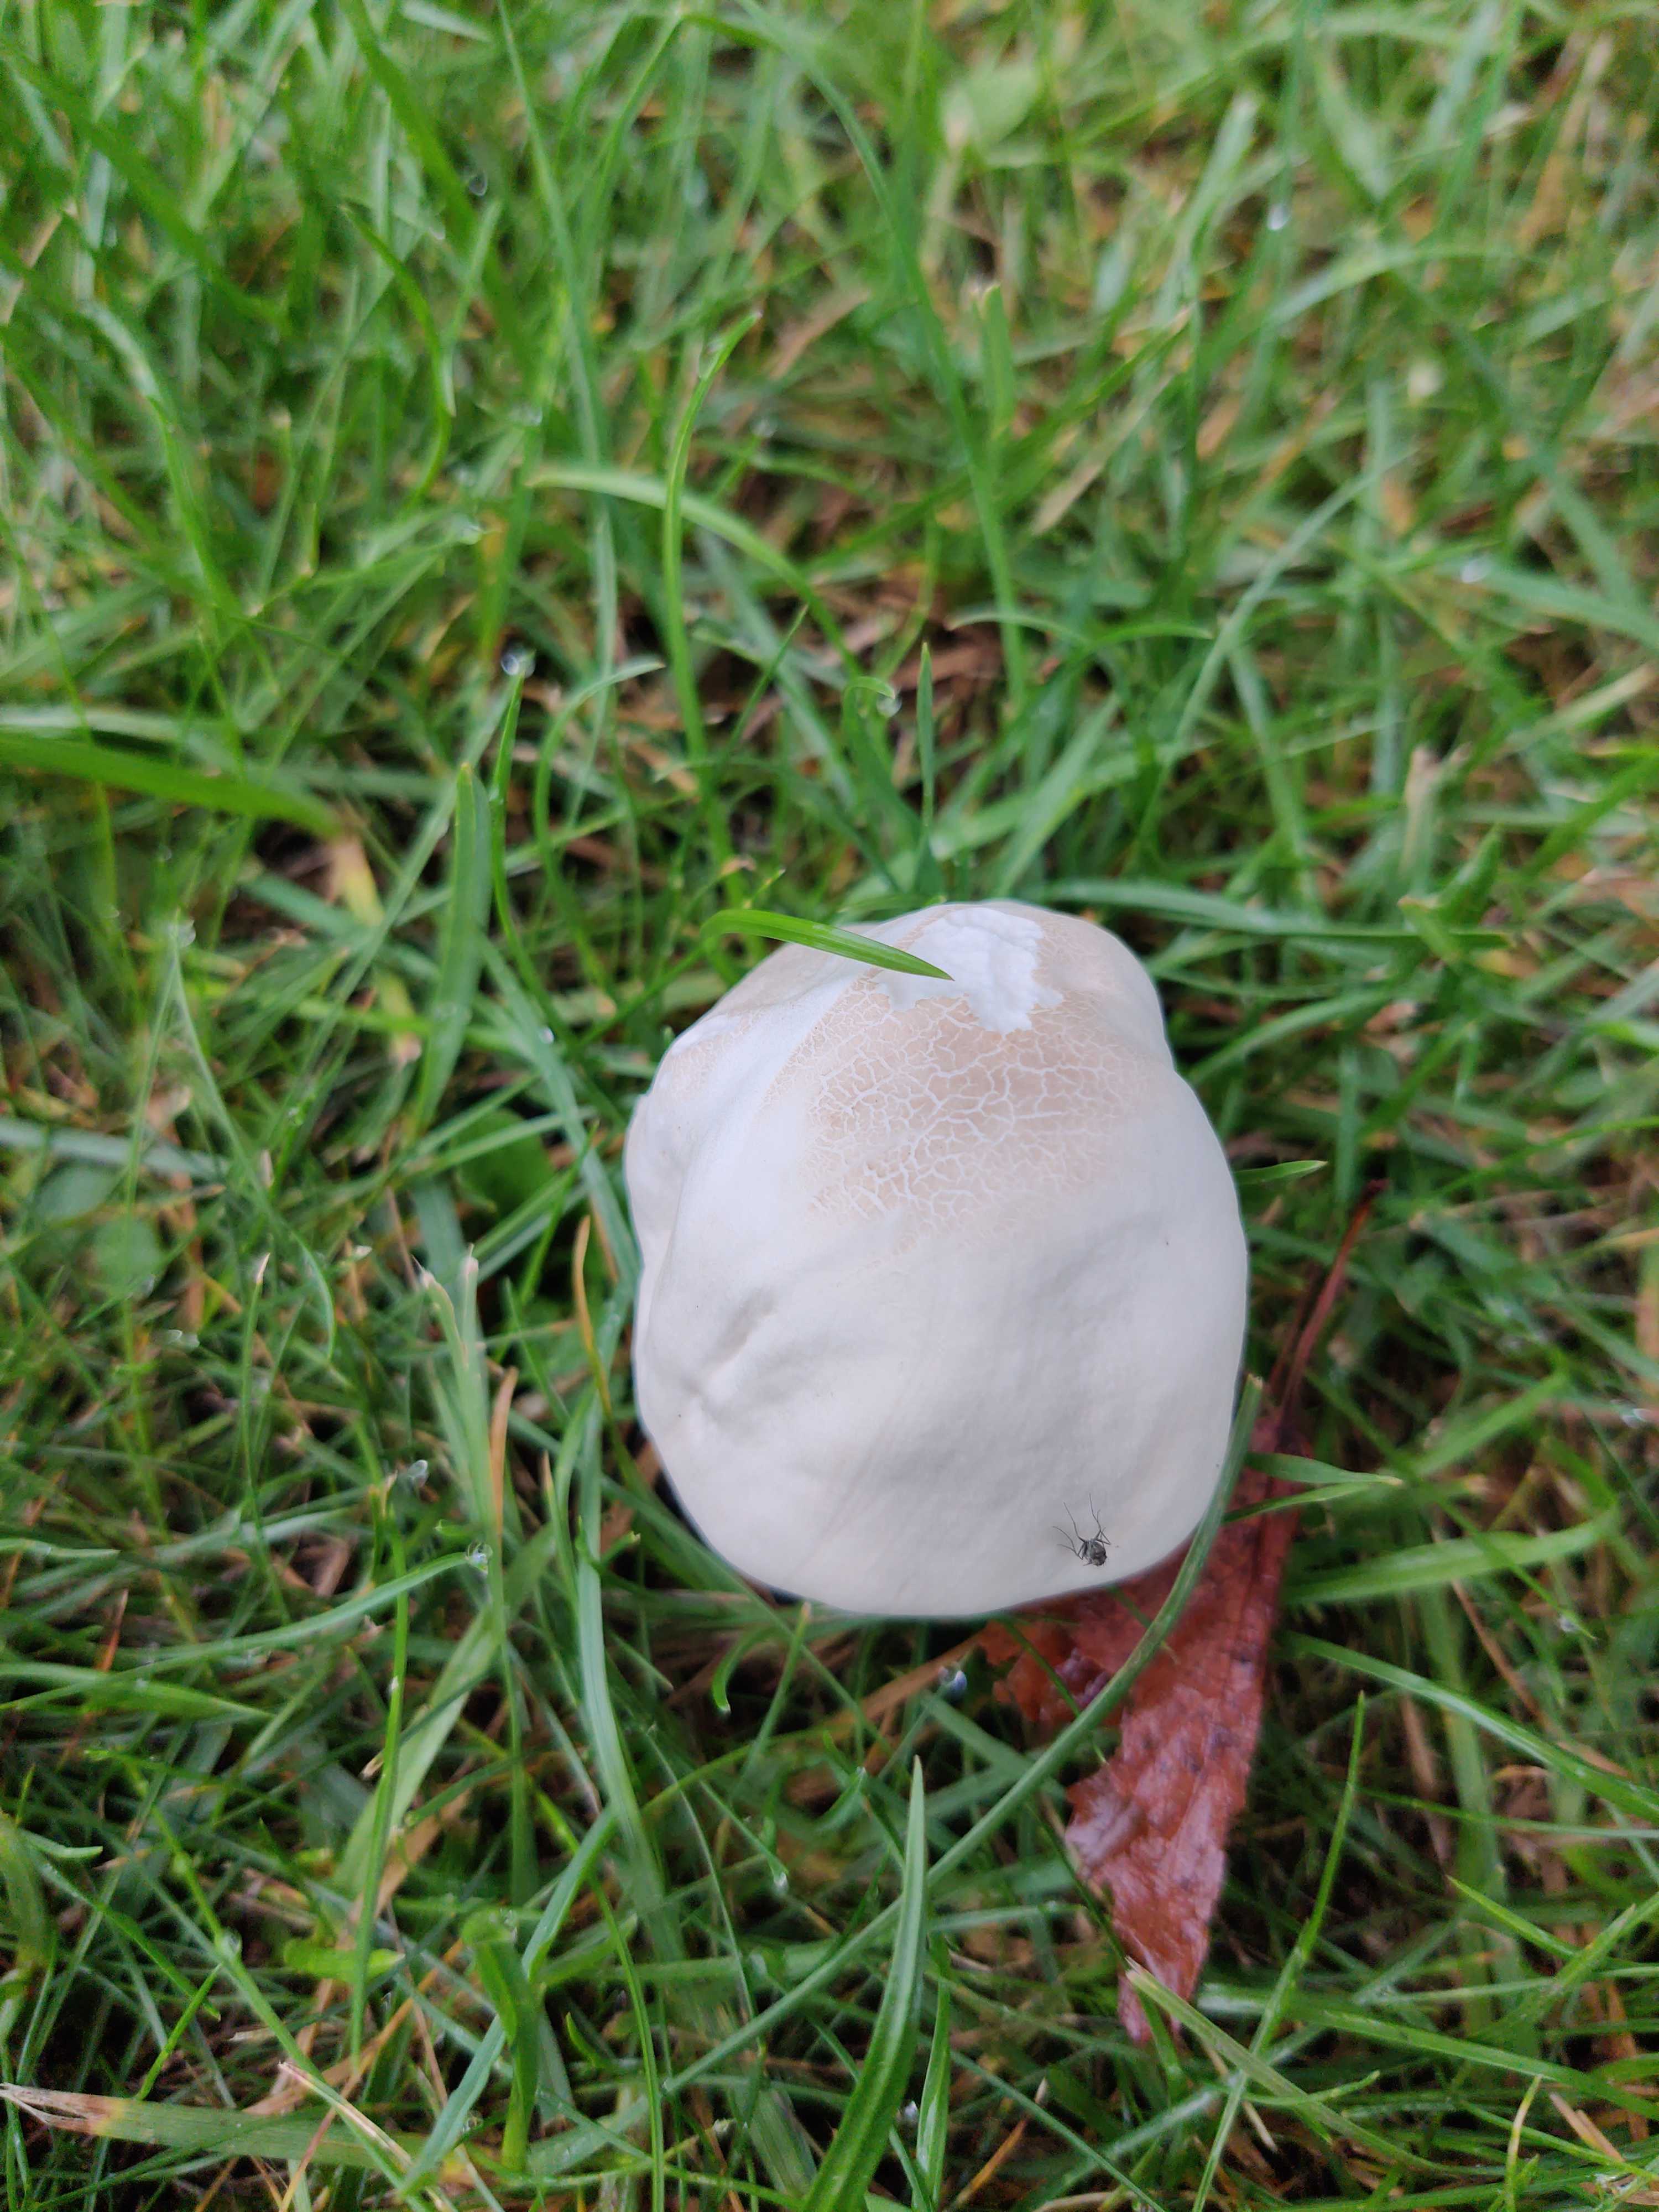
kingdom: Fungi
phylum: Basidiomycota
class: Agaricomycetes
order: Agaricales
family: Agaricaceae
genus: Agaricus
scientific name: Agaricus
